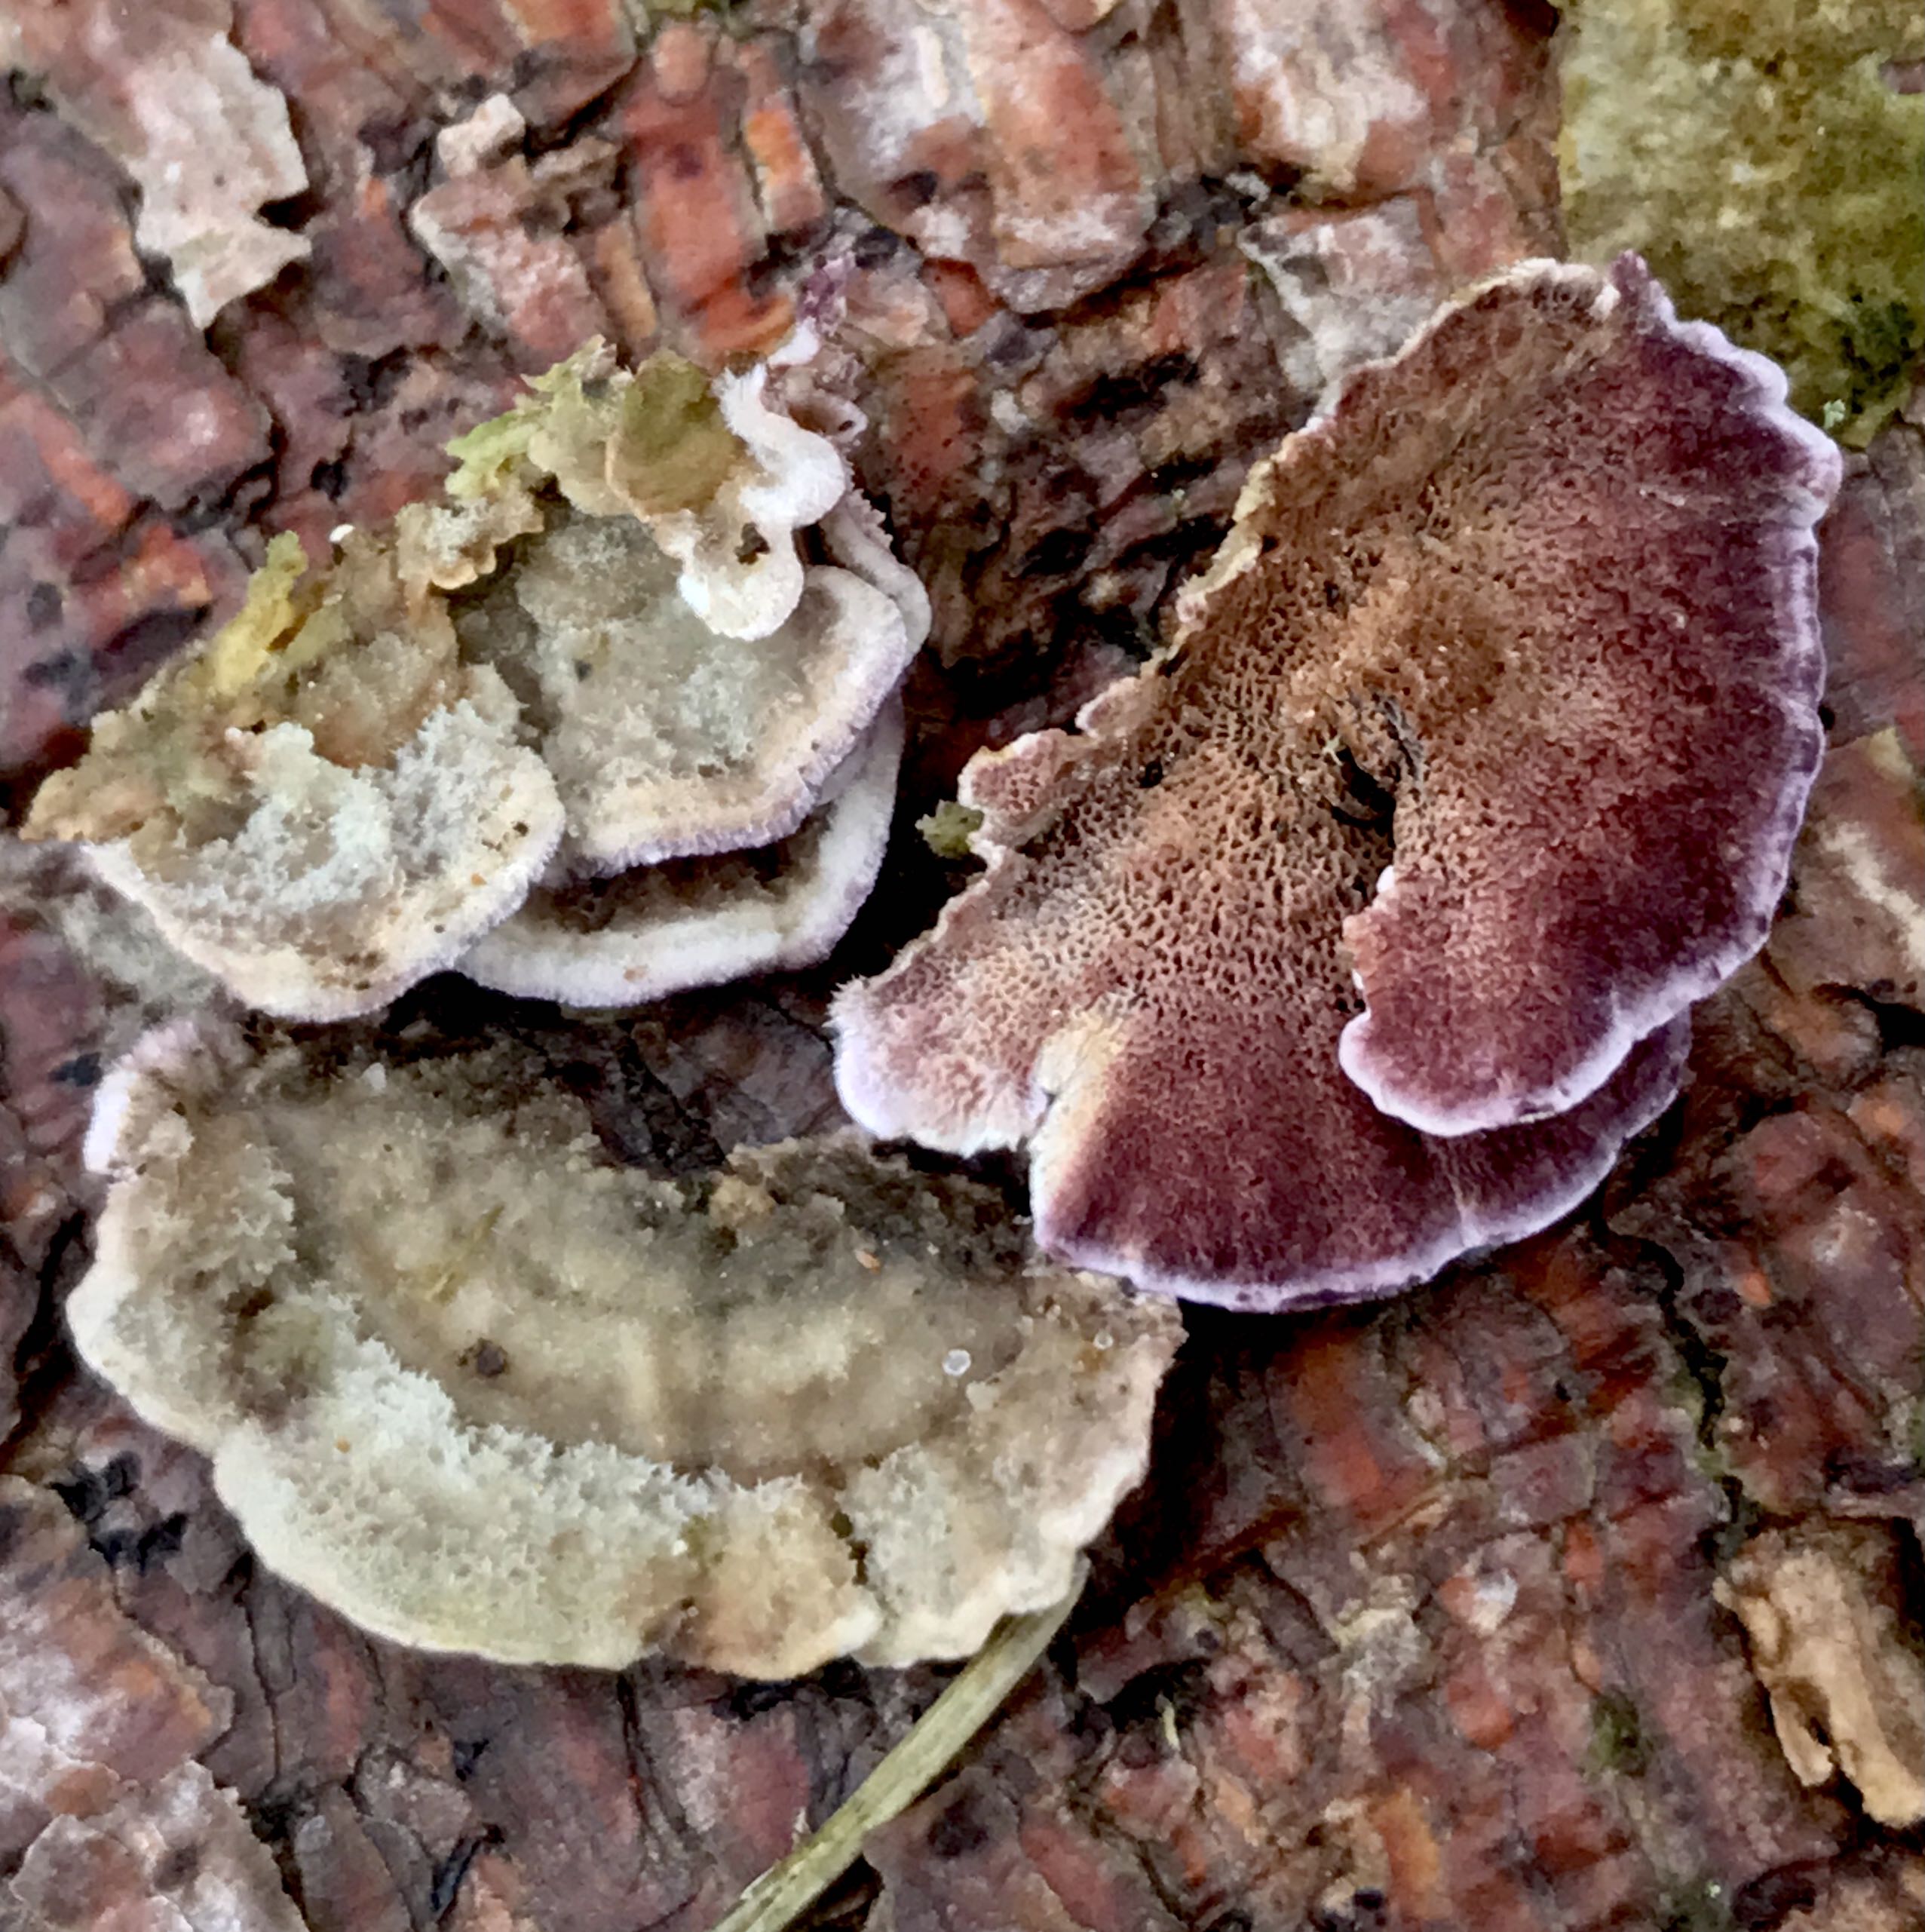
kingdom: Fungi
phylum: Basidiomycota
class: Agaricomycetes
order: Hymenochaetales
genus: Trichaptum
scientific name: Trichaptum abietinum
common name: almindelig violporesvamp
